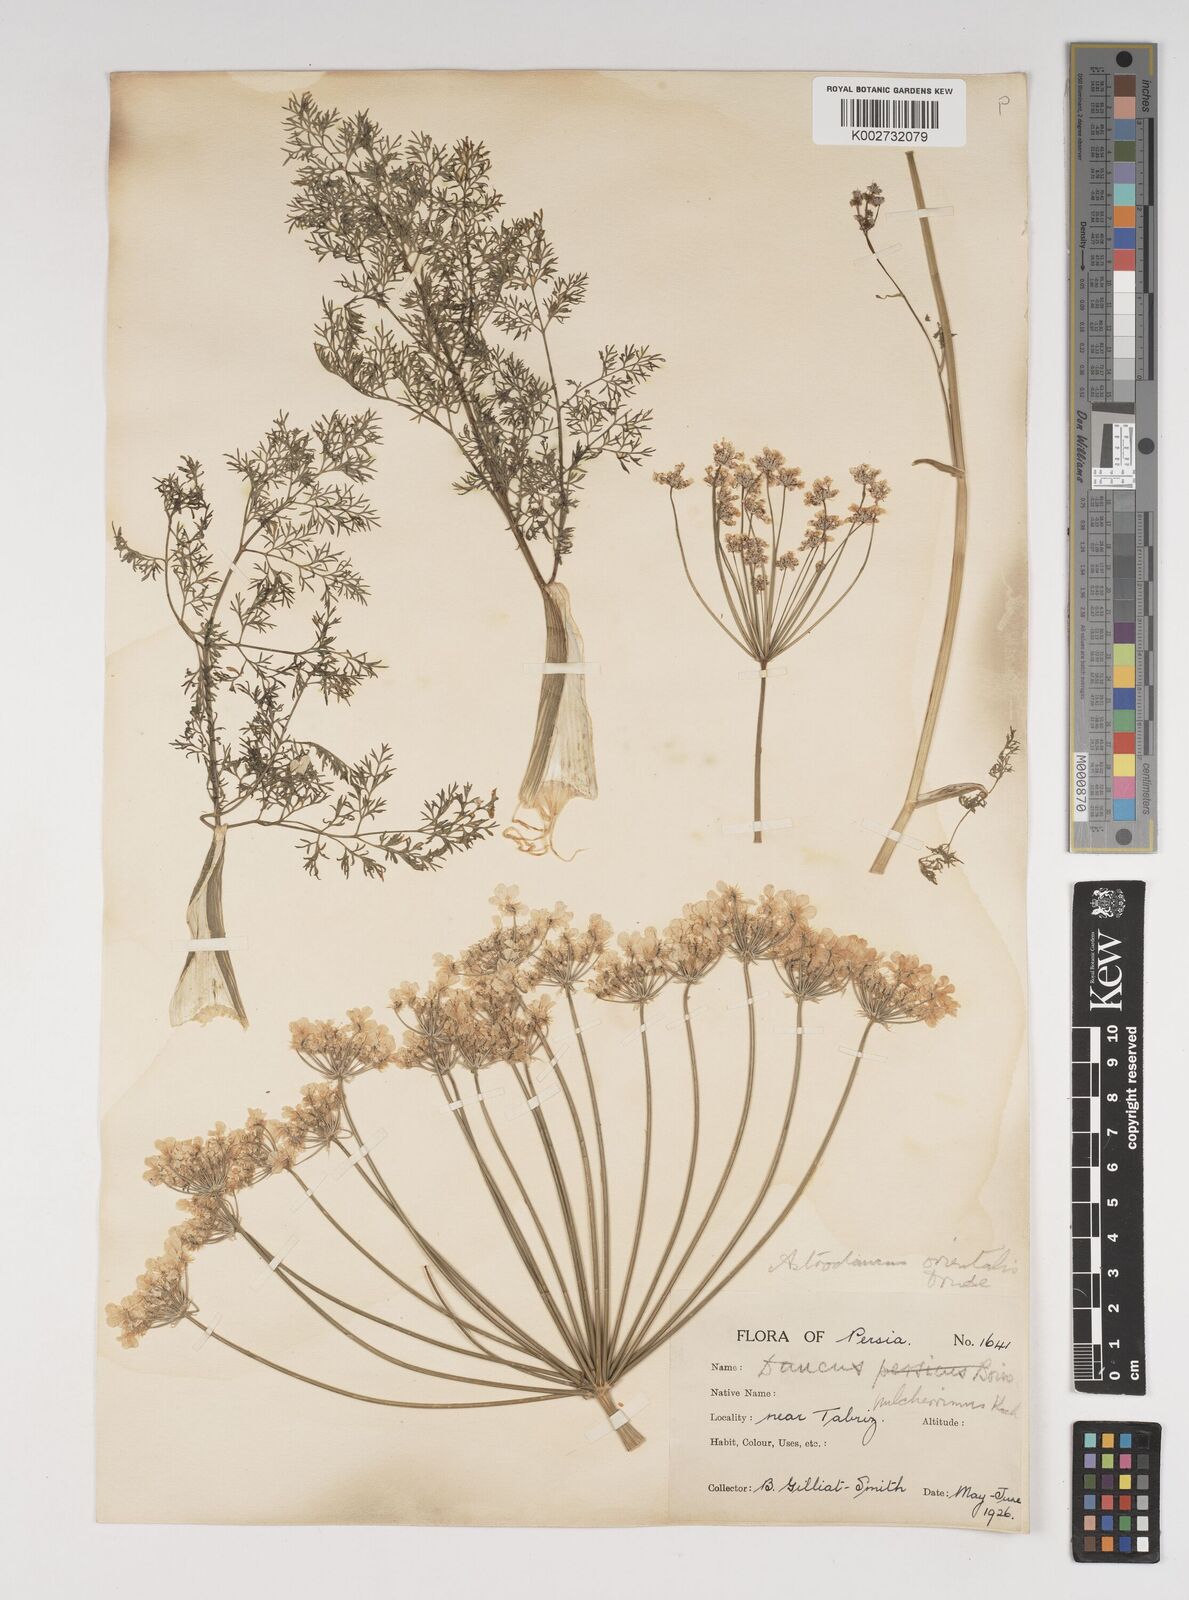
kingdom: Plantae
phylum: Tracheophyta
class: Magnoliopsida
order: Apiales
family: Apiaceae
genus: Astrodaucus
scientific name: Astrodaucus
